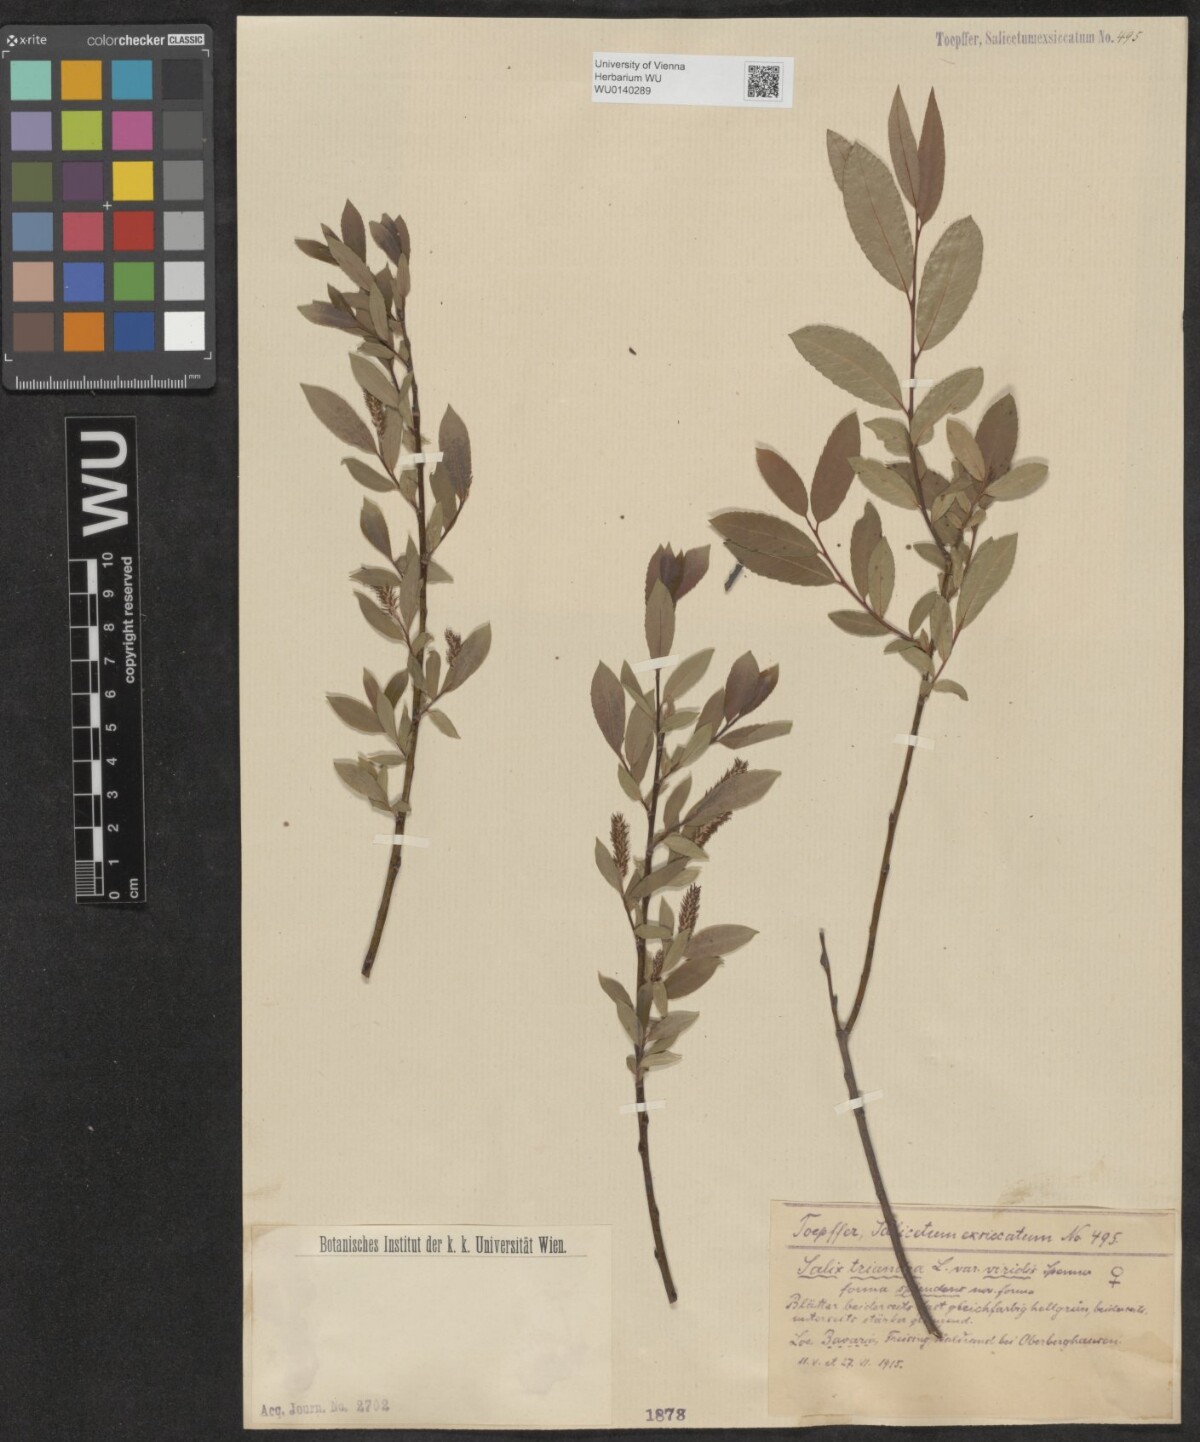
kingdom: Plantae
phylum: Tracheophyta
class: Magnoliopsida
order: Malpighiales
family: Salicaceae
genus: Salix
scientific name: Salix triandra
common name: Almond willow
